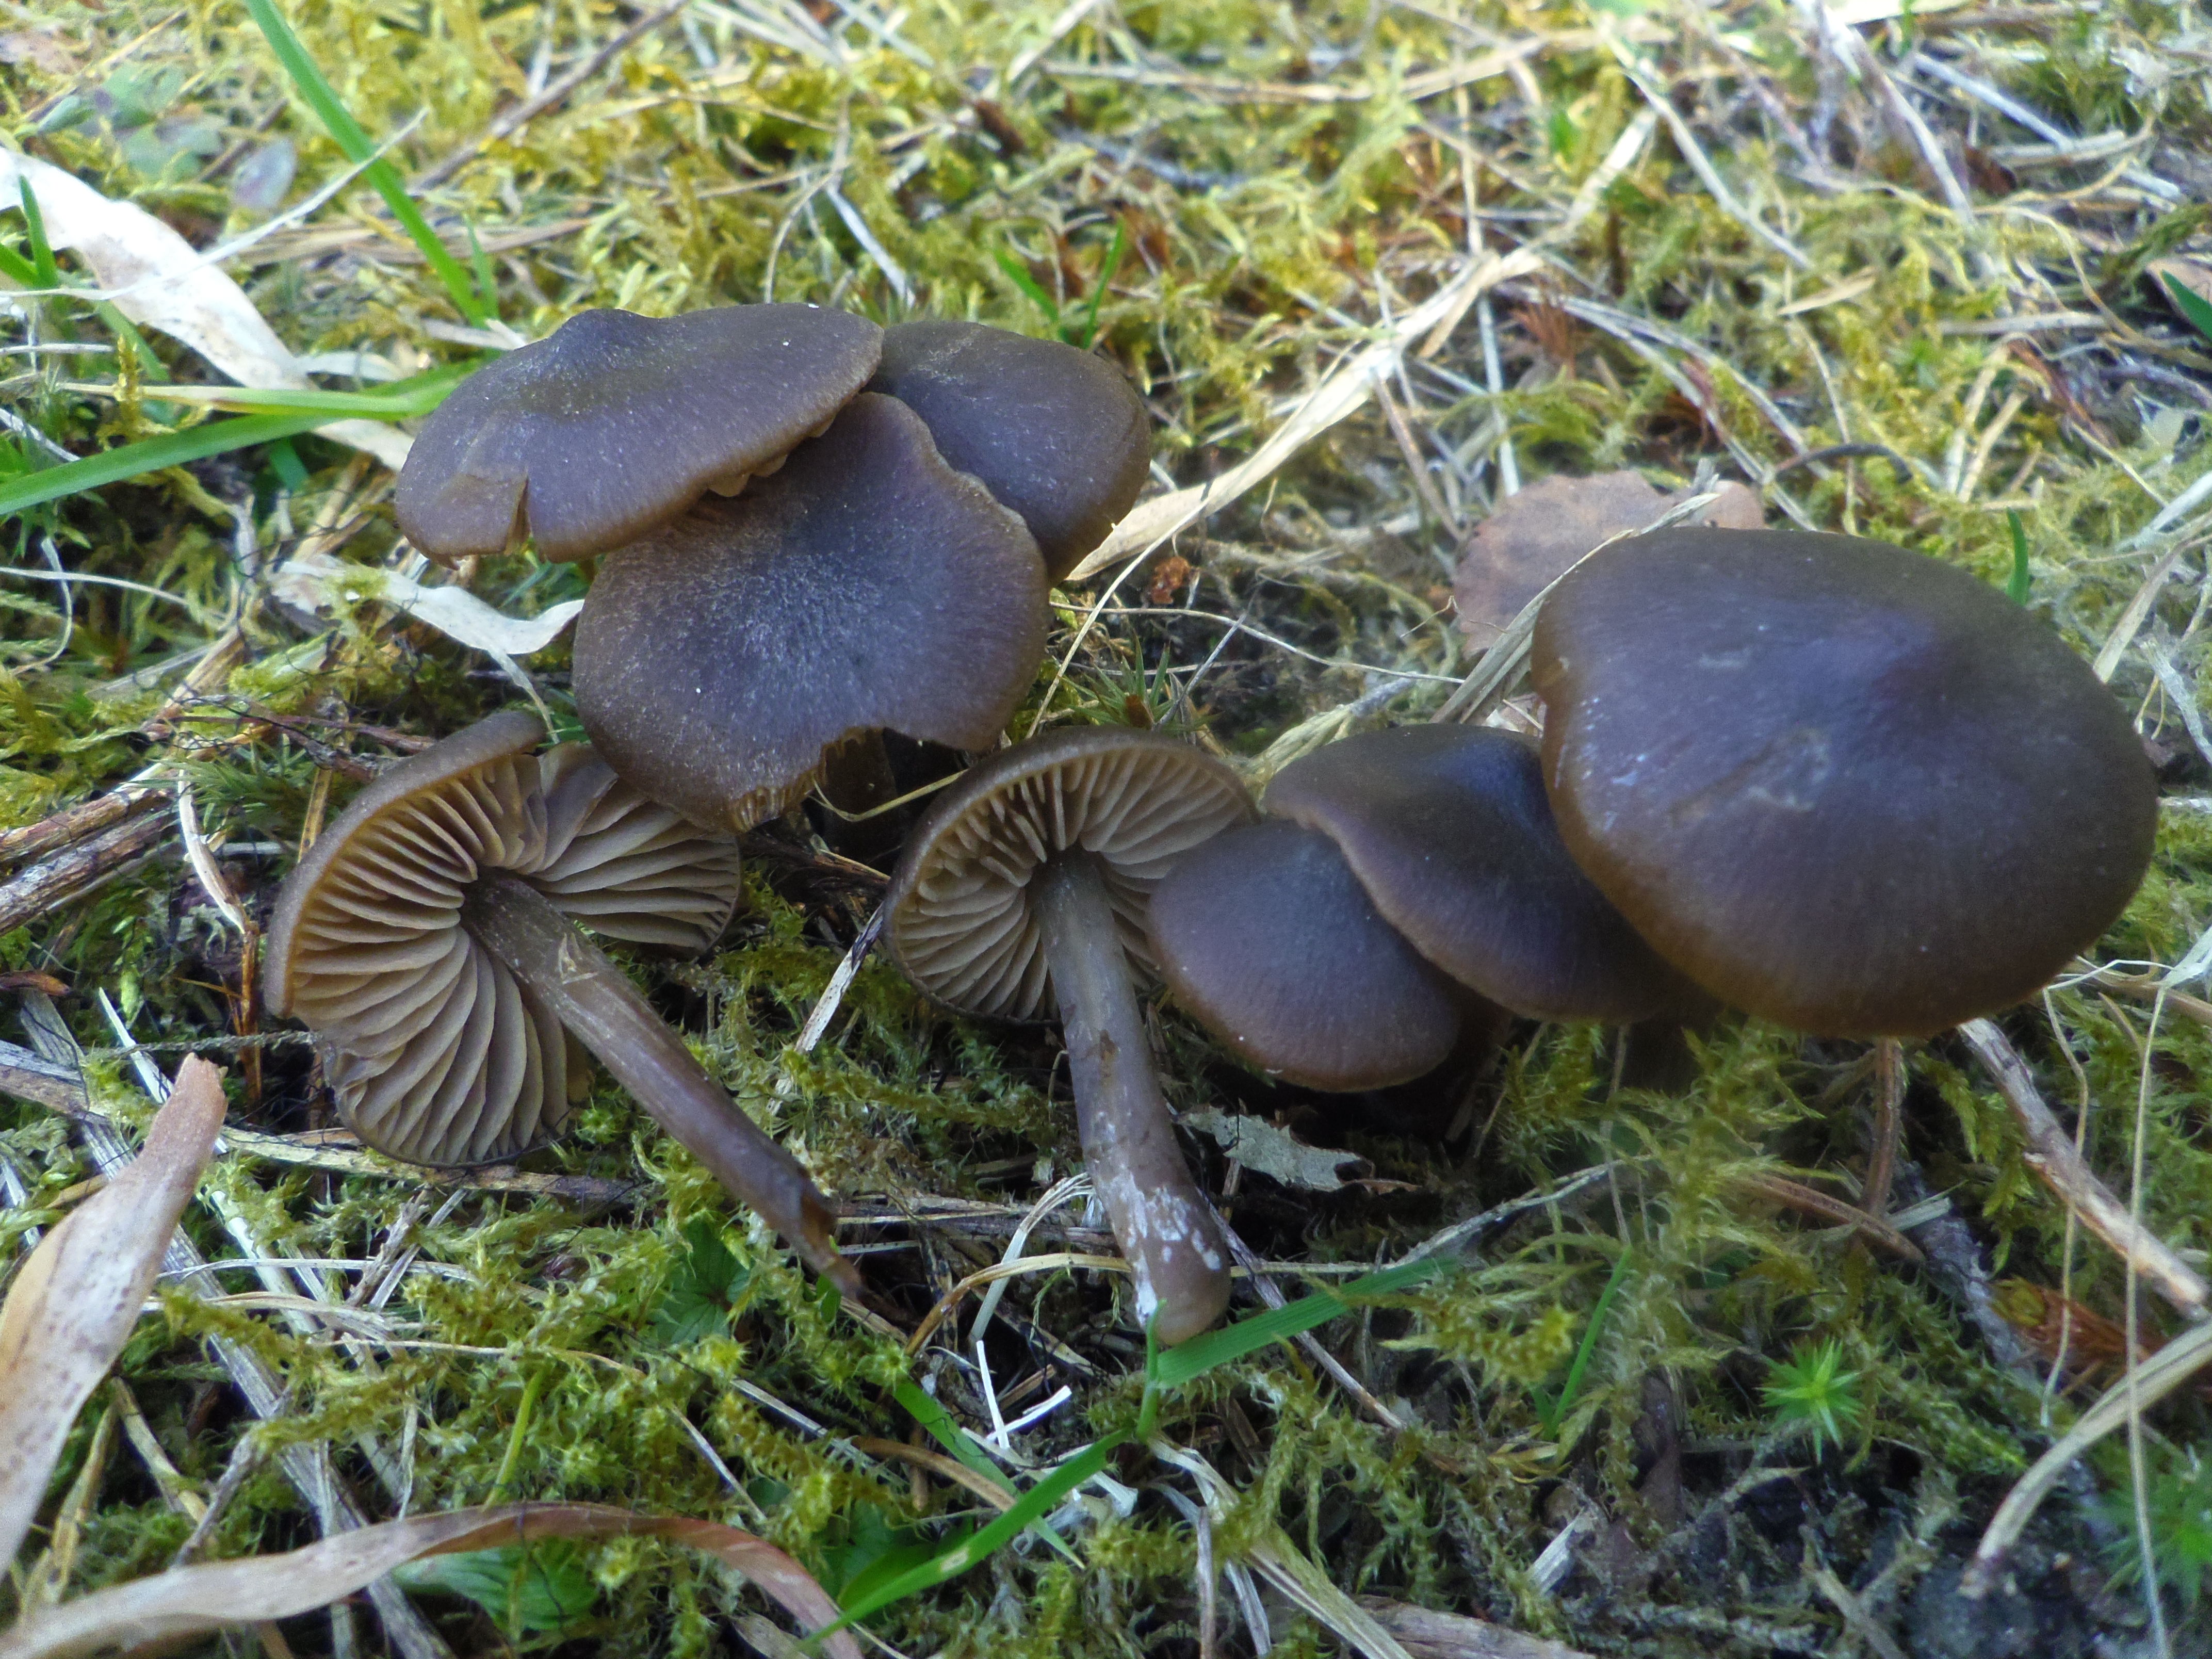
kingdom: Fungi
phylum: Basidiomycota
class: Agaricomycetes
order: Agaricales
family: Entolomataceae
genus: Entoloma
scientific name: Entoloma vernum
